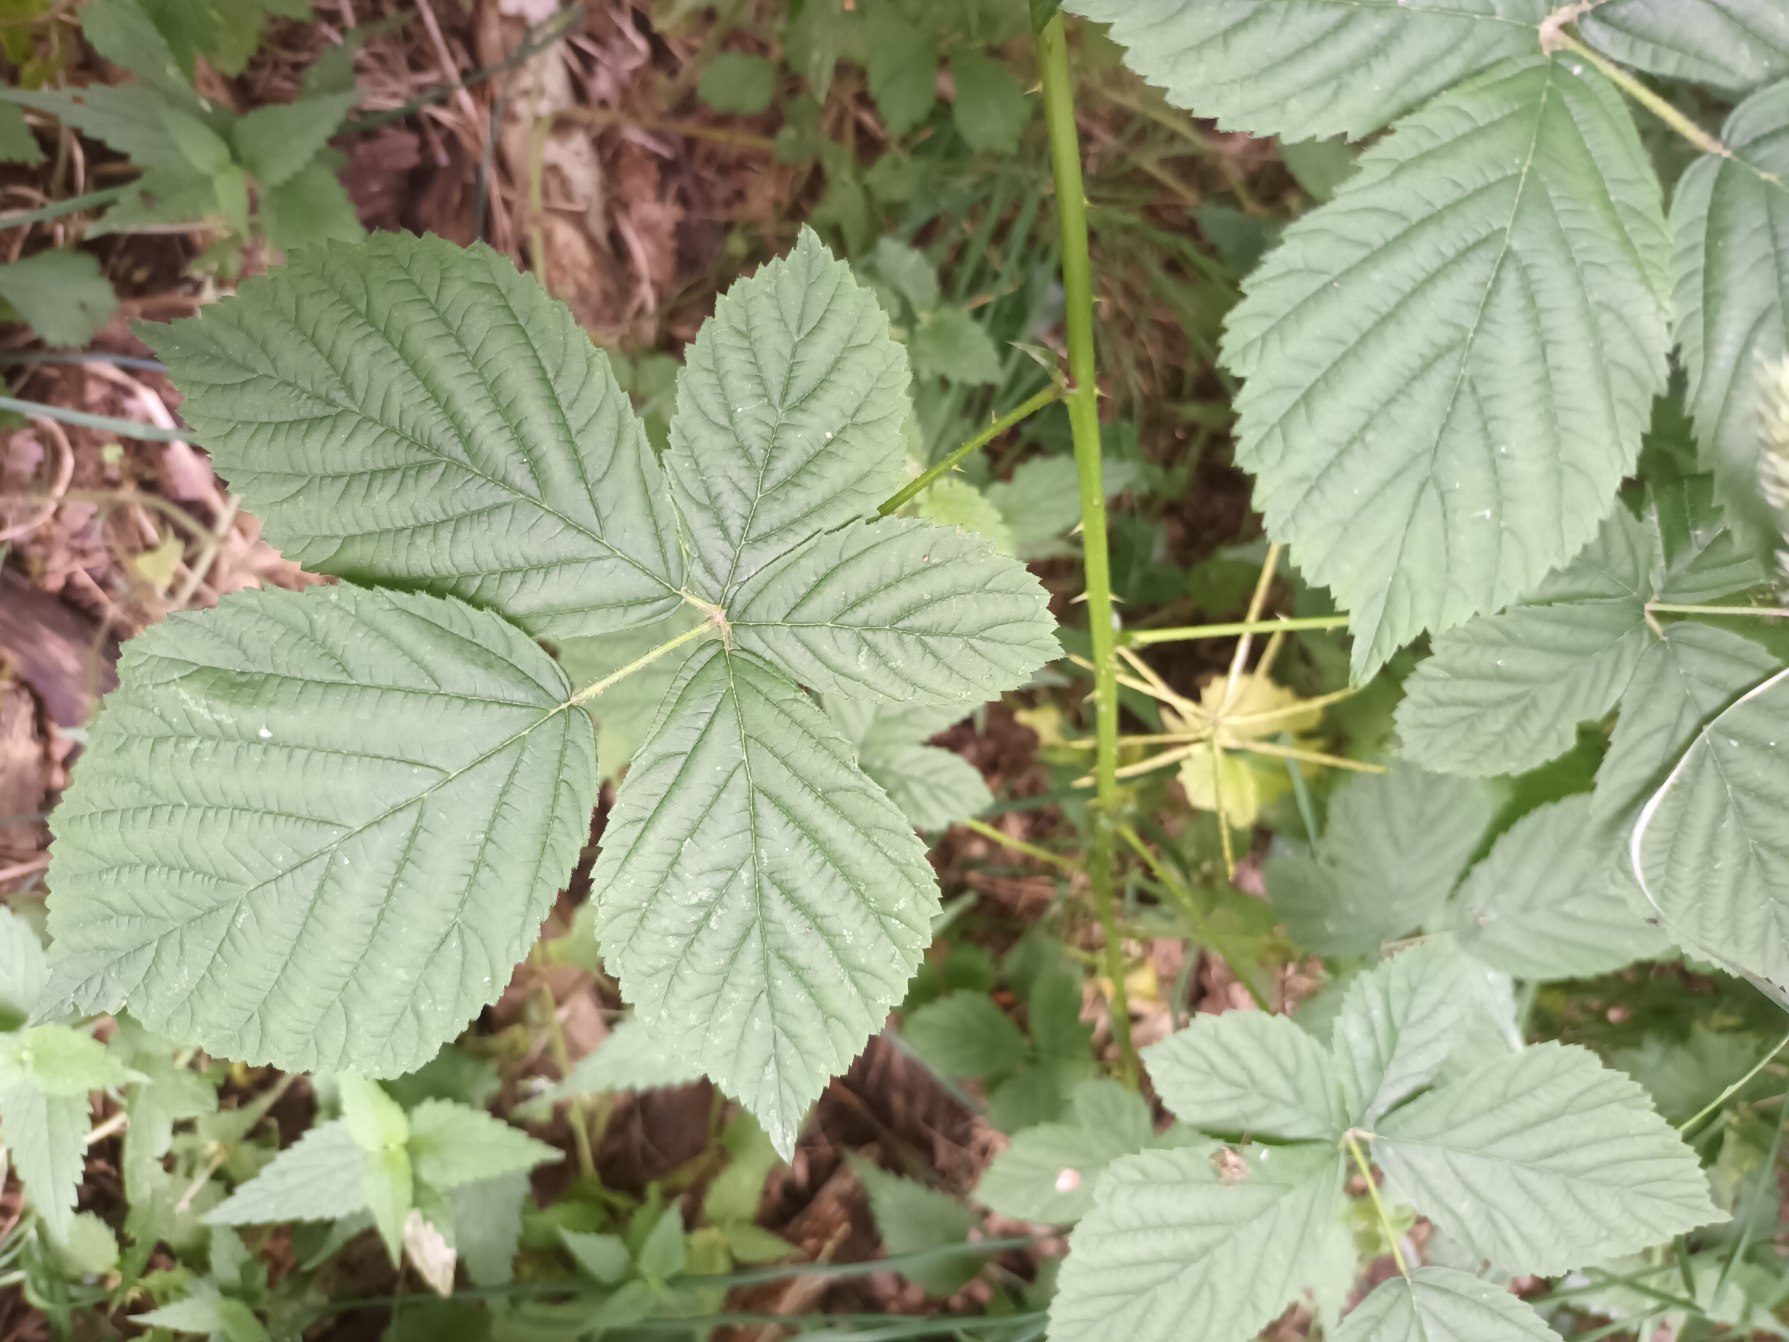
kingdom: Plantae
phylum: Tracheophyta
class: Magnoliopsida
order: Rosales
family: Rosaceae
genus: Rubus
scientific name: Rubus camptostachys
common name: Håret hasselbrombær
